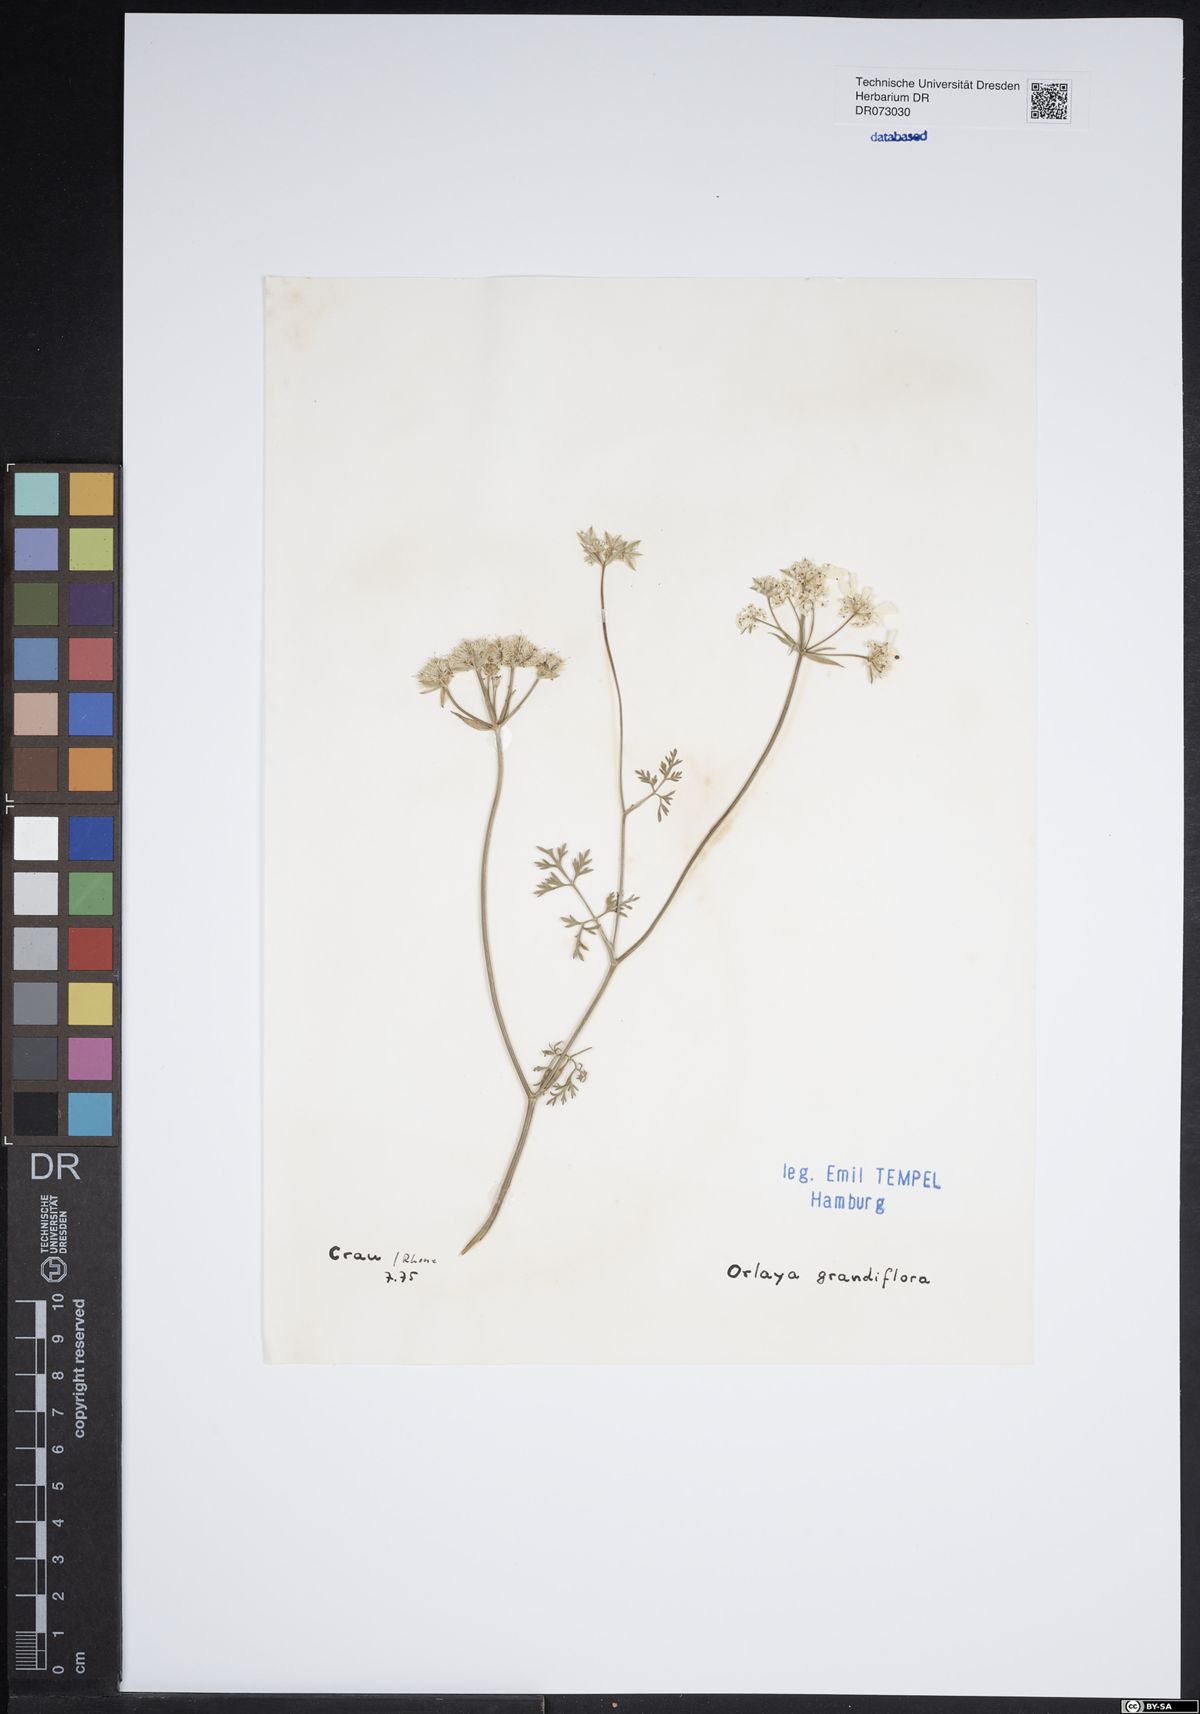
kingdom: Plantae
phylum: Tracheophyta
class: Magnoliopsida
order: Apiales
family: Apiaceae
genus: Daucus
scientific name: Daucus pumilus
